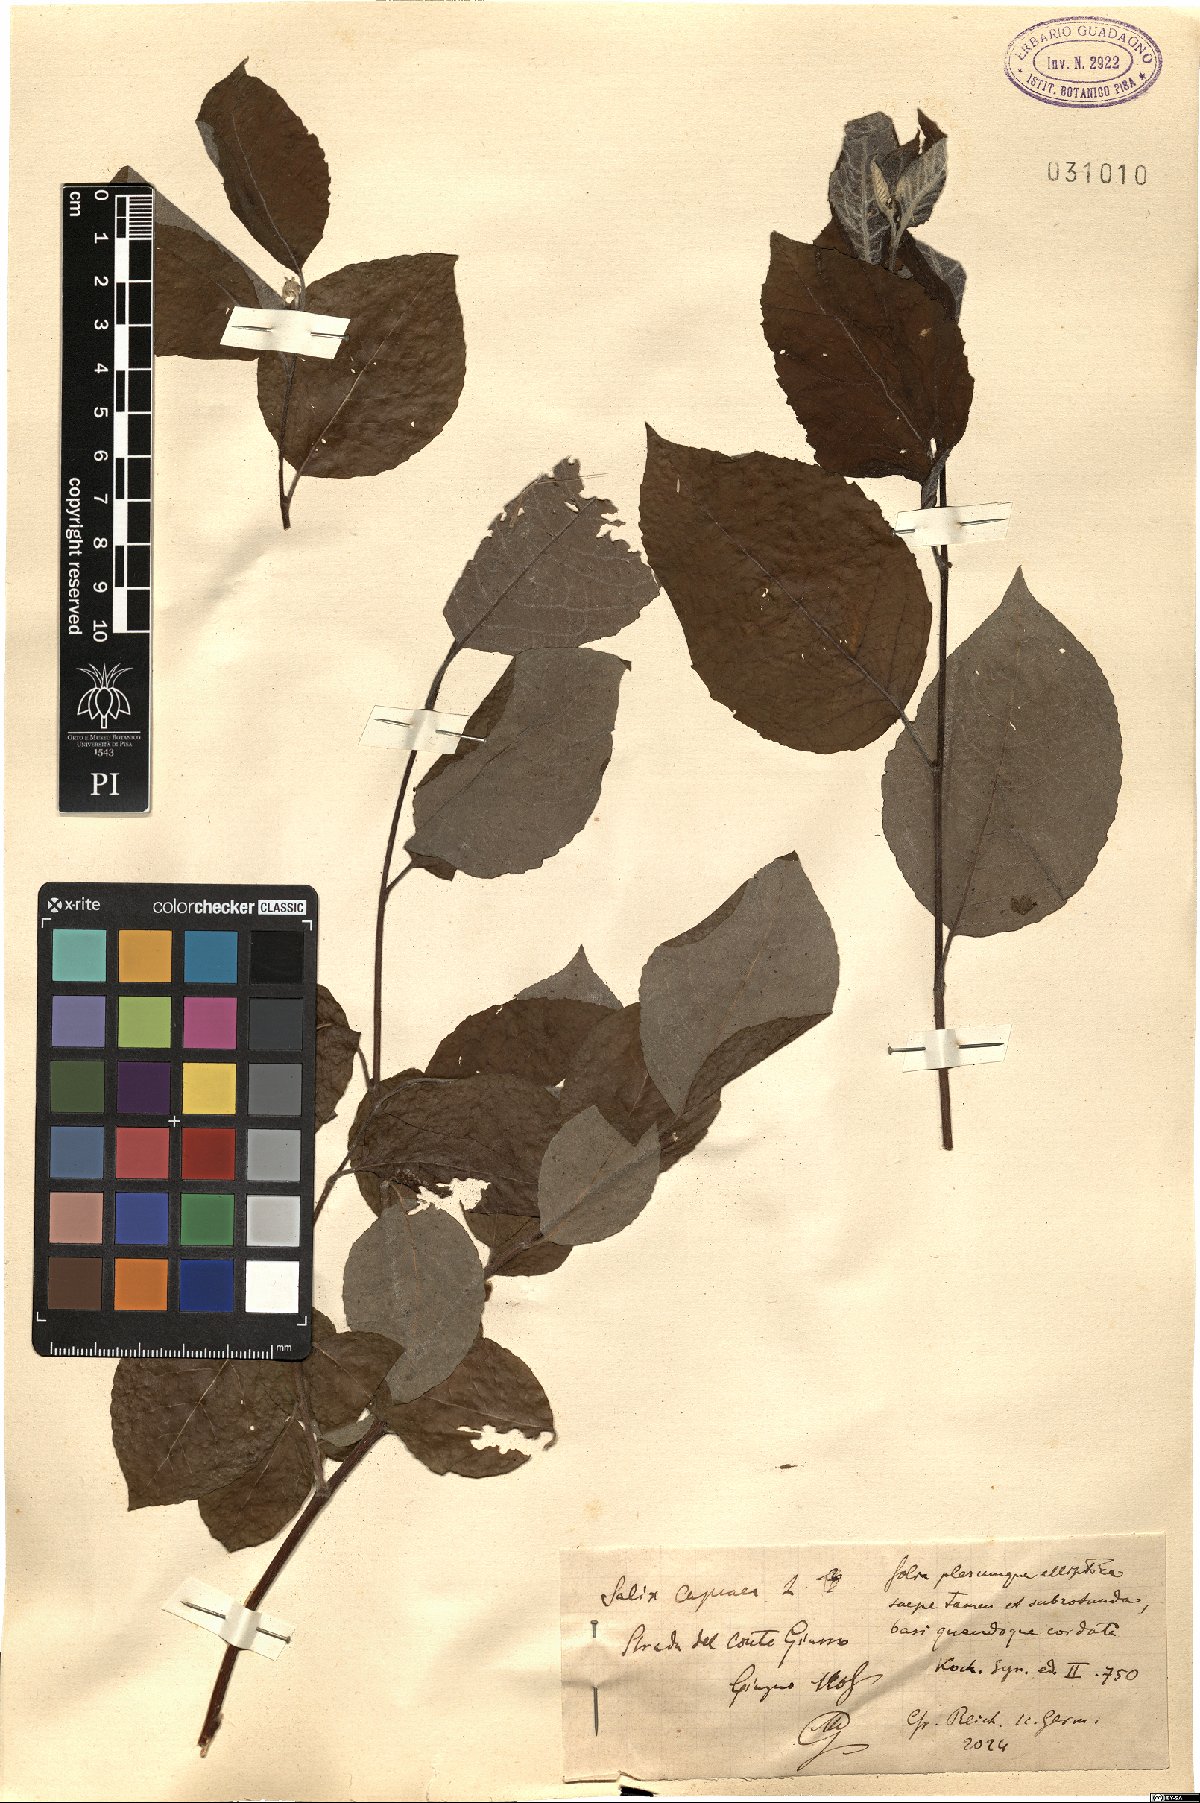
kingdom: Plantae
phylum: Tracheophyta
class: Magnoliopsida
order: Malpighiales
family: Salicaceae
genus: Salix
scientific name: Salix caprea
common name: Goat willow
